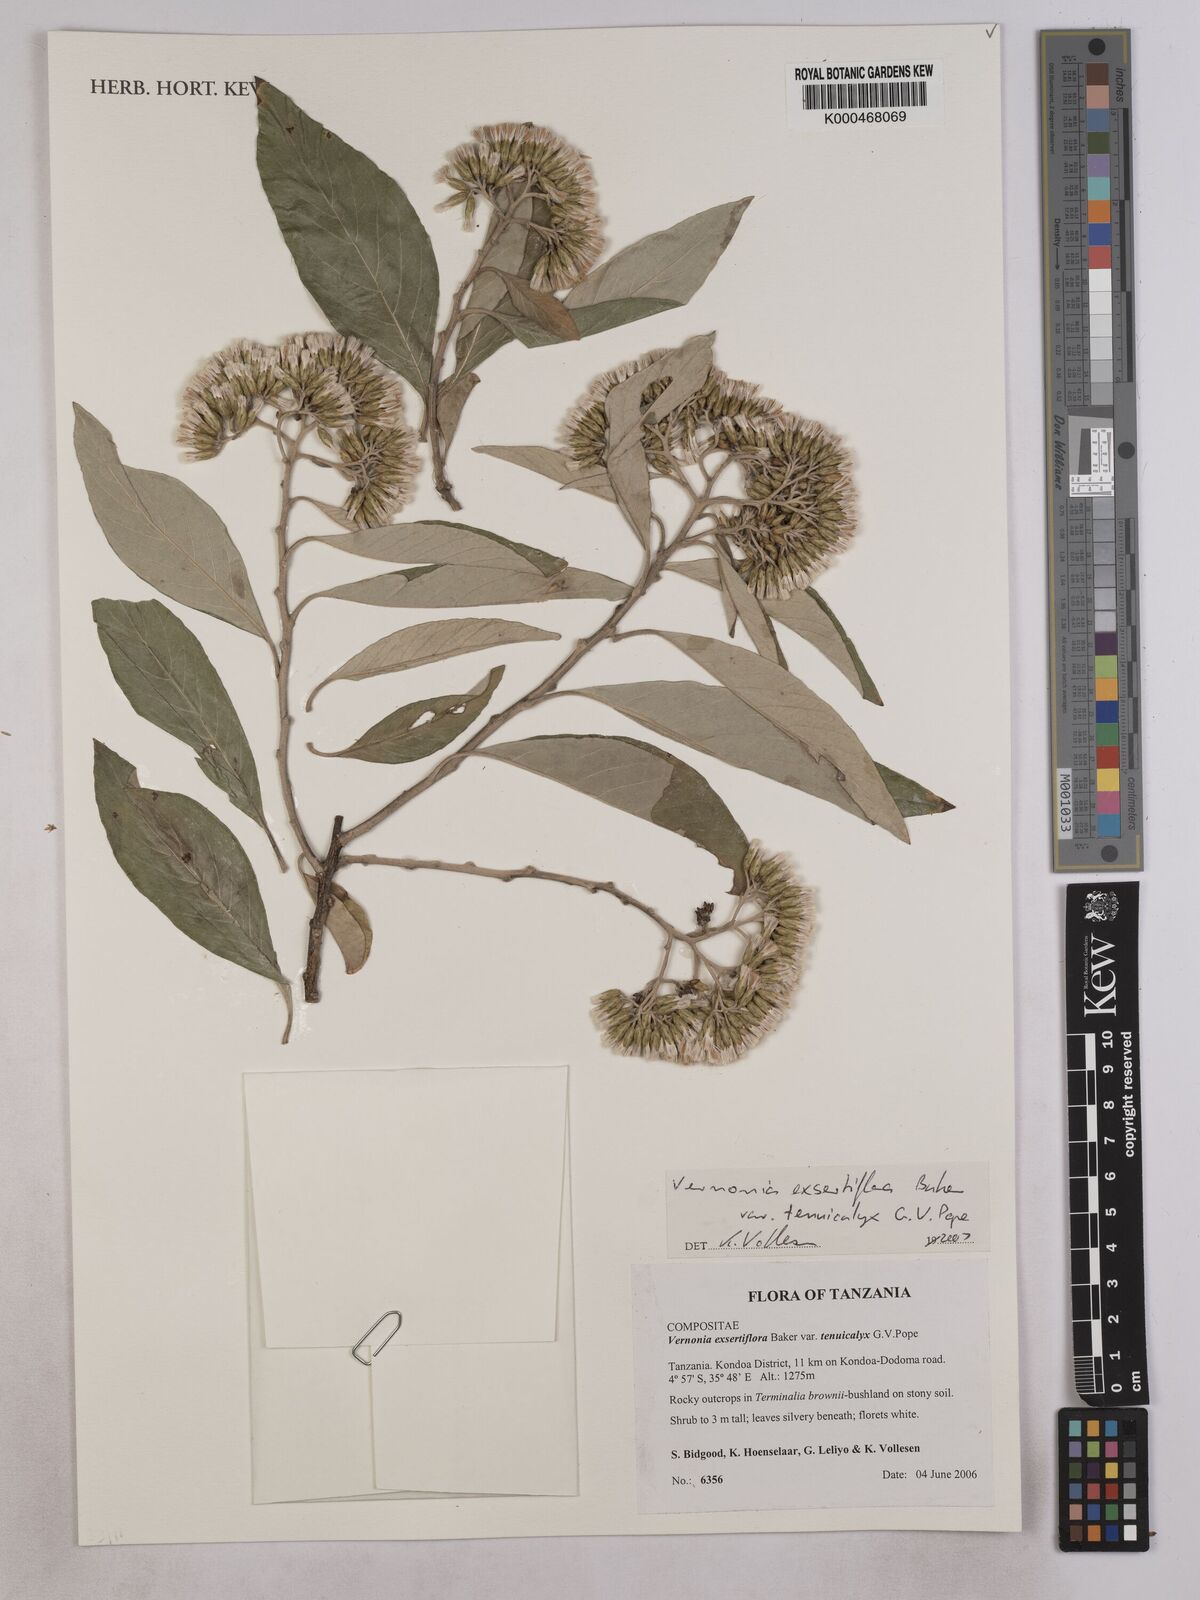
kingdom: Plantae
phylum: Tracheophyta
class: Magnoliopsida
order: Asterales
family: Asteraceae
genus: Gymnanthemum
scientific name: Gymnanthemum exsertiflorum
